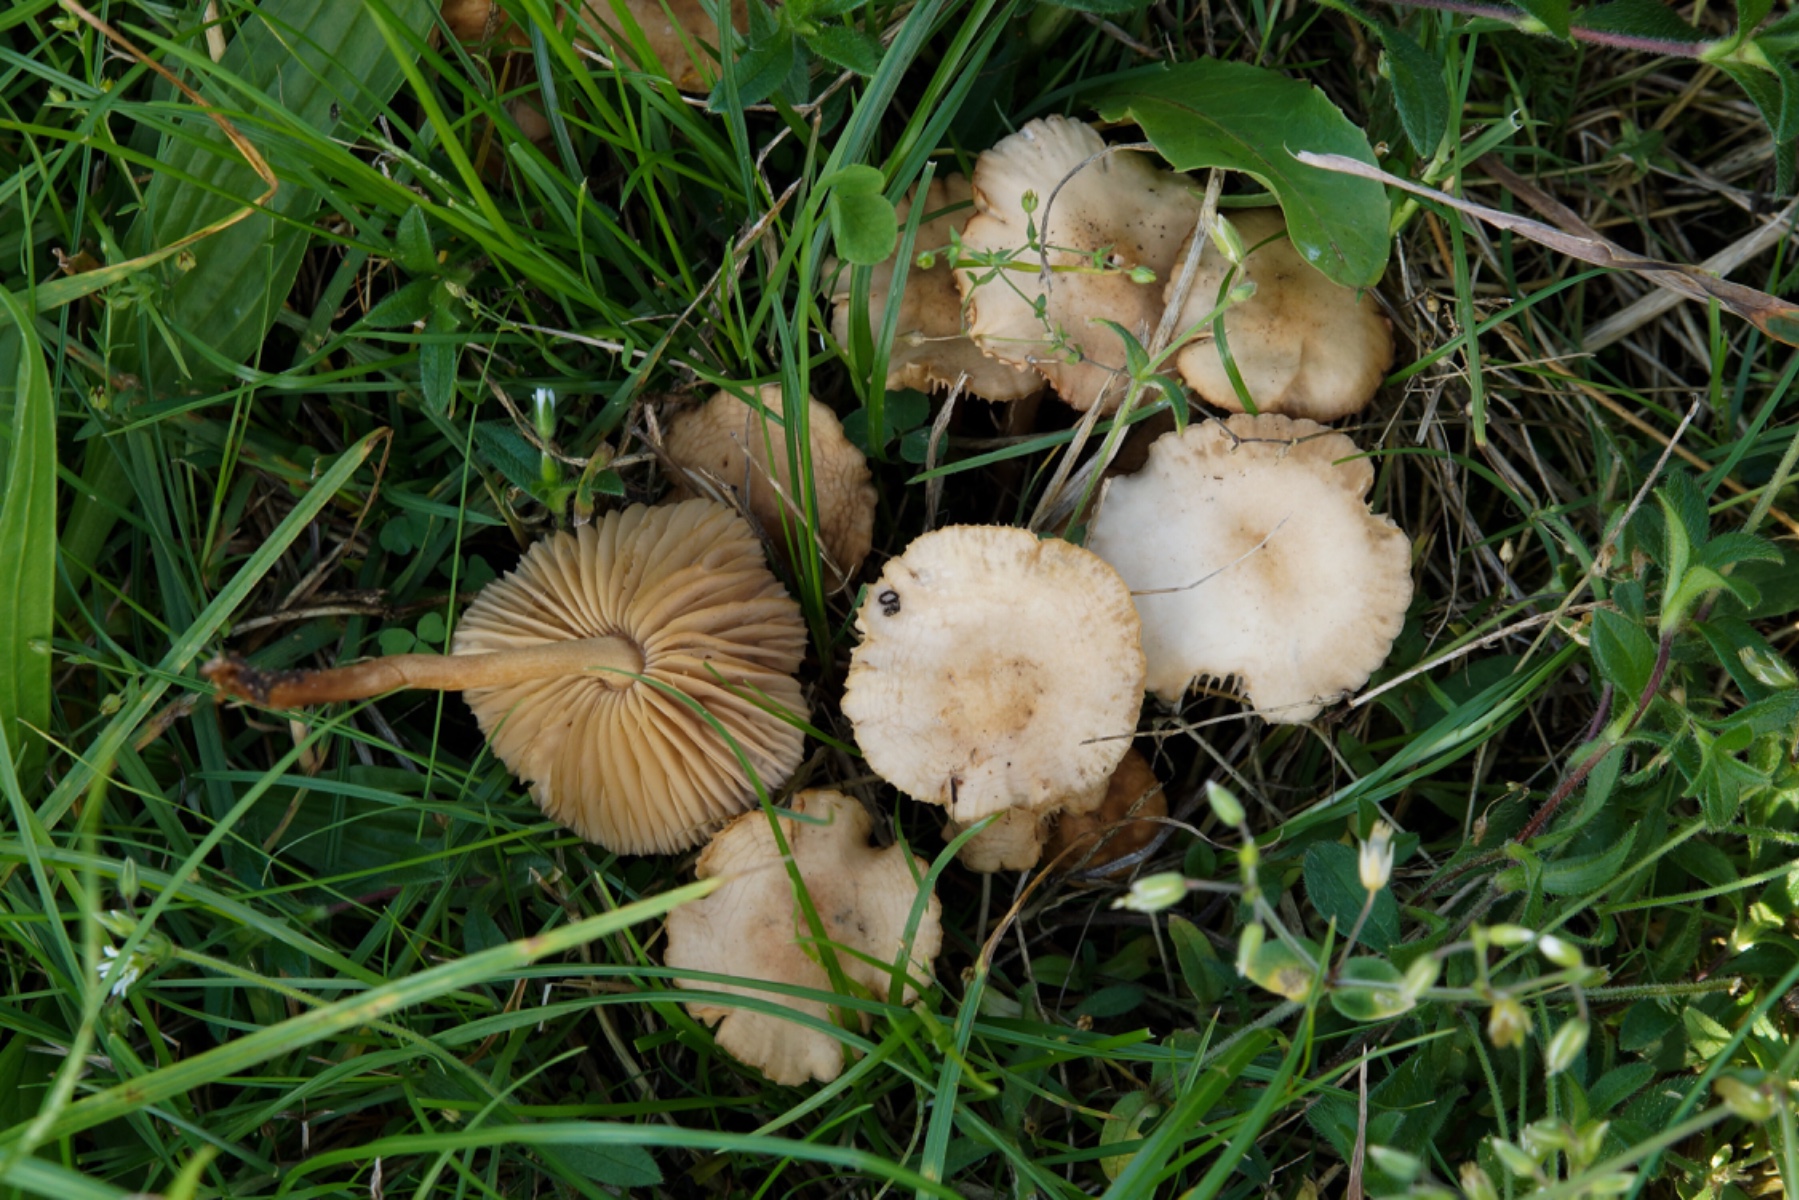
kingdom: Fungi
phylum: Basidiomycota
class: Agaricomycetes
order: Agaricales
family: Marasmiaceae
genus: Marasmius
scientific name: Marasmius oreades
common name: elledans-bruskhat
